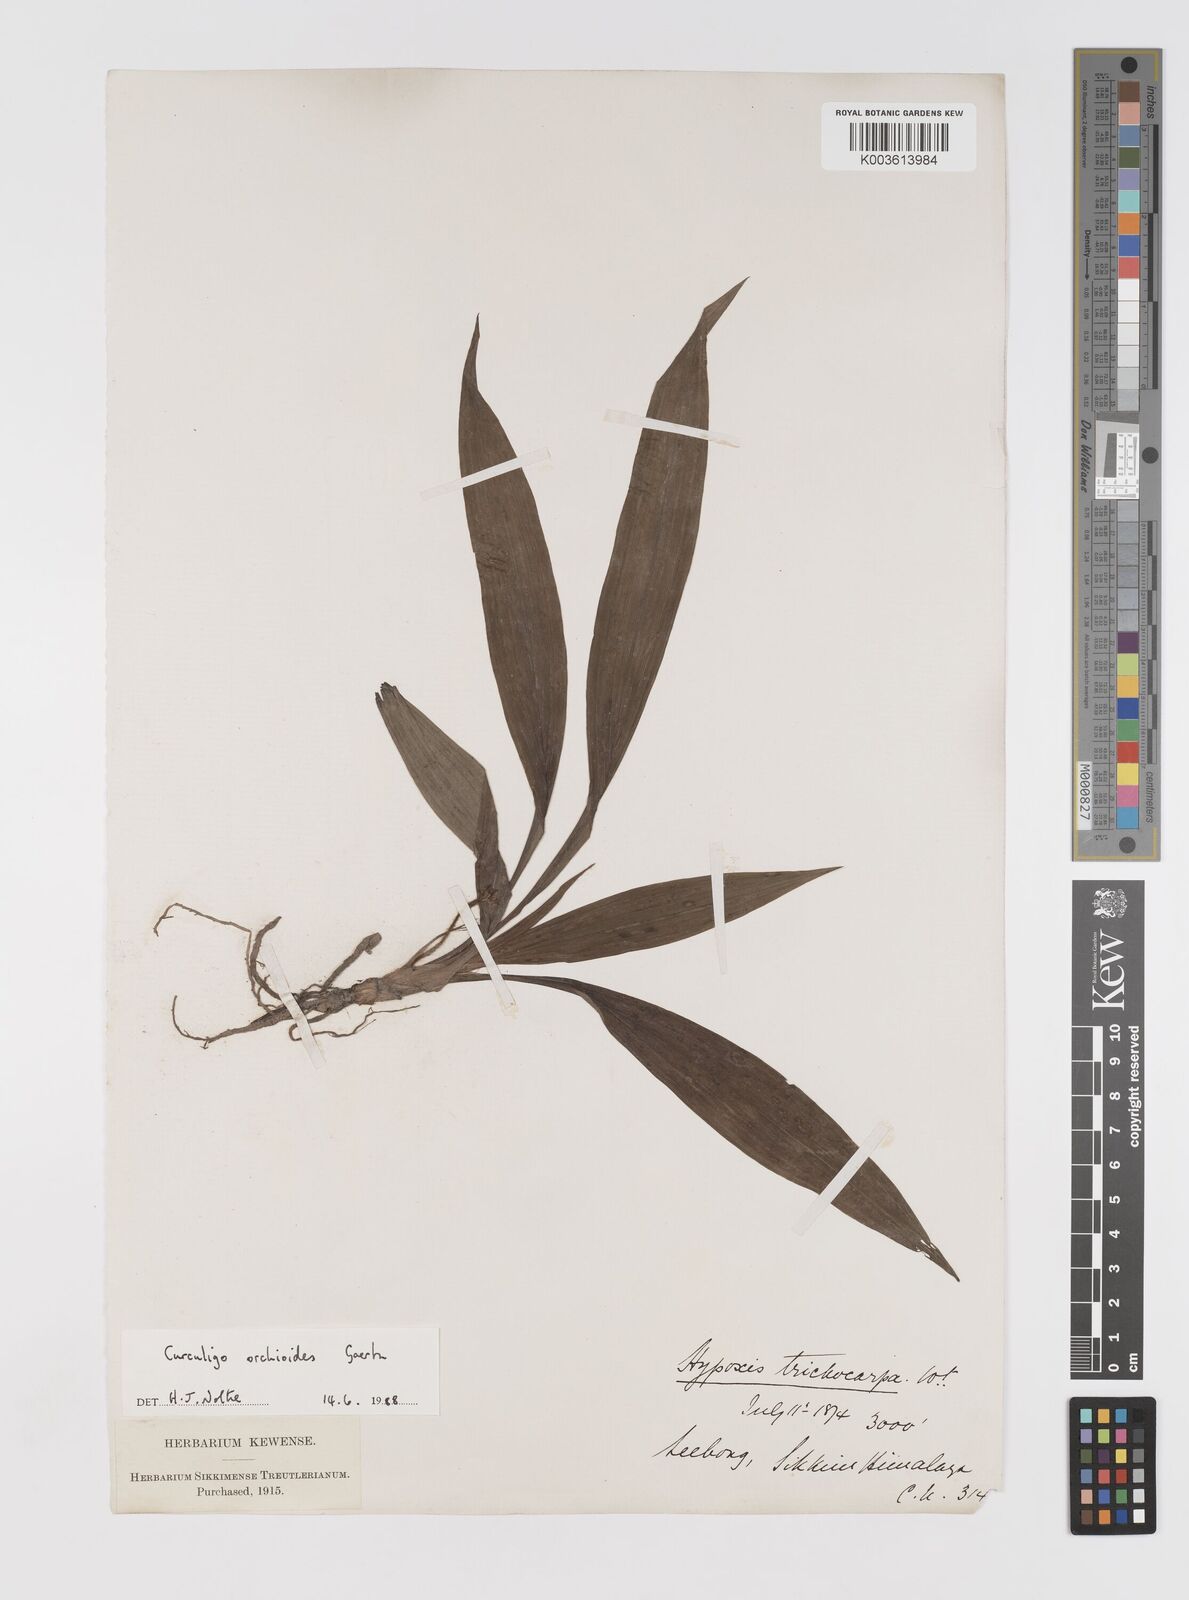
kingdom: Plantae
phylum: Tracheophyta
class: Liliopsida
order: Asparagales
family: Hypoxidaceae
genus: Curculigo
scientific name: Curculigo orchioides
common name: Golden eye-grass
